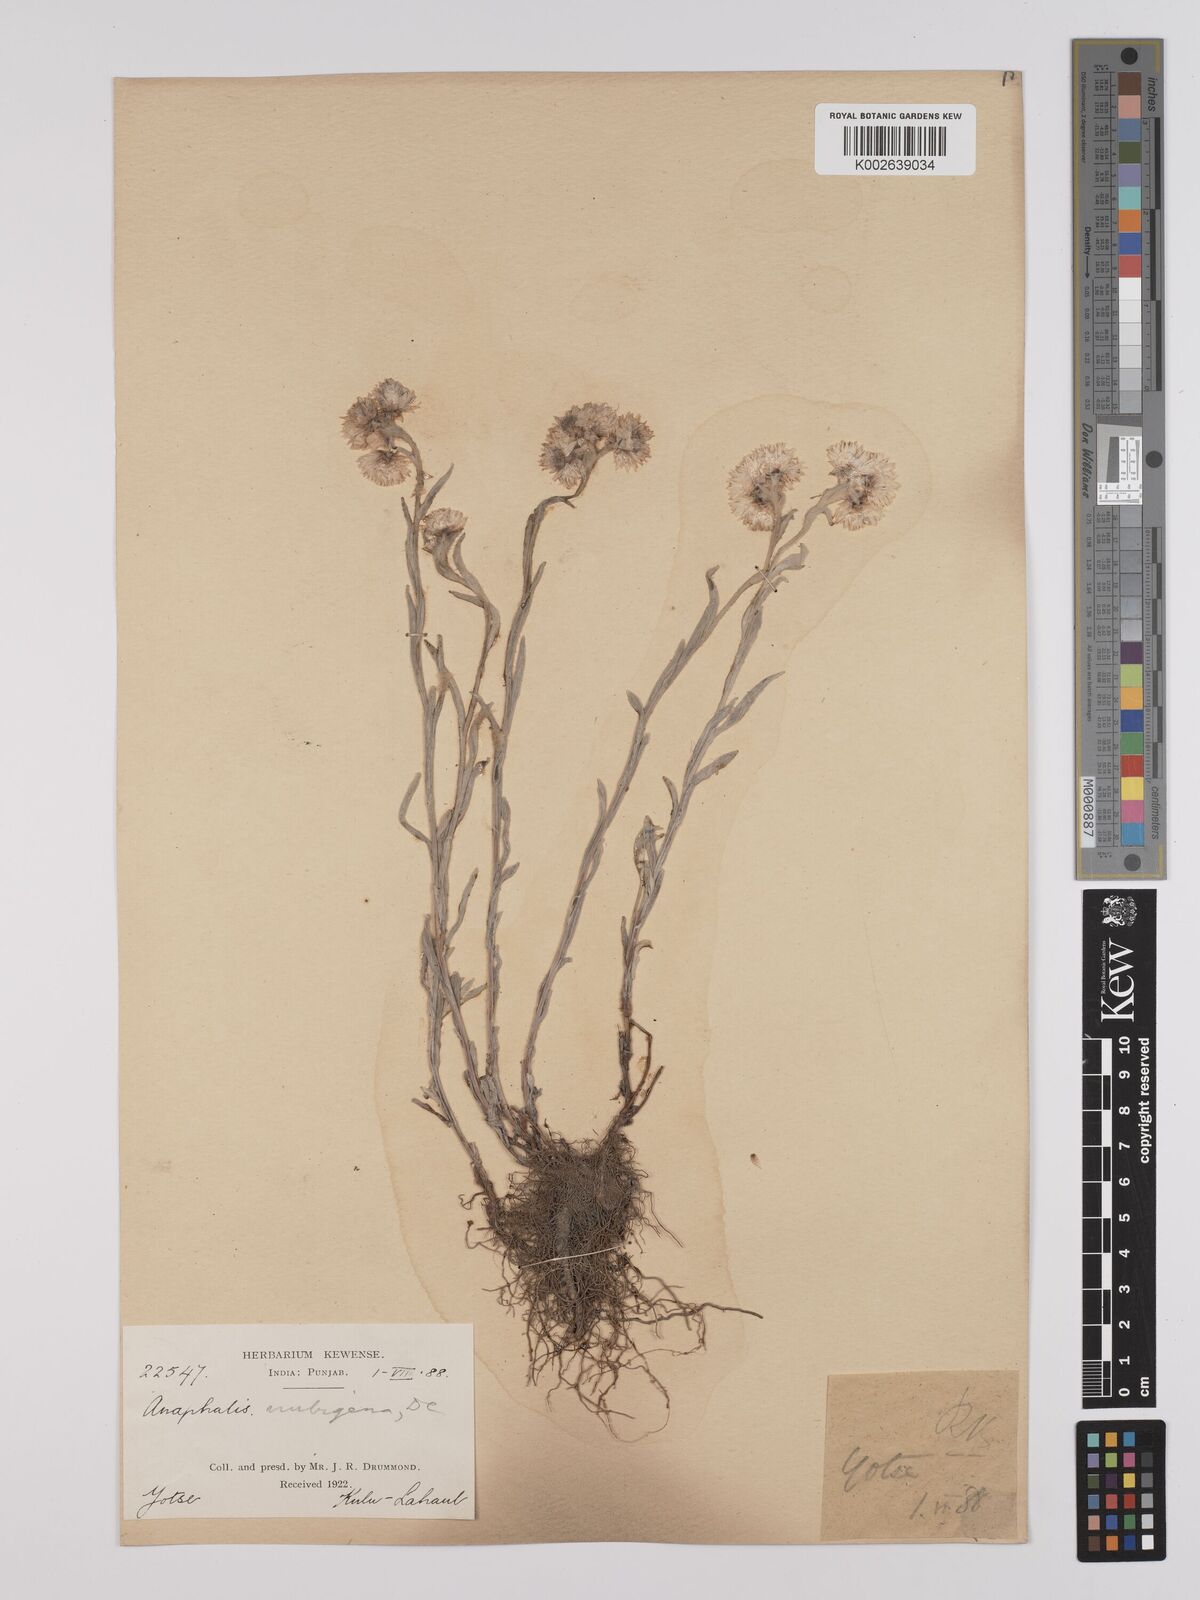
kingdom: Plantae
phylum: Tracheophyta
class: Magnoliopsida
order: Asterales
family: Asteraceae
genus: Anaphalis
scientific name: Anaphalis nepalensis
